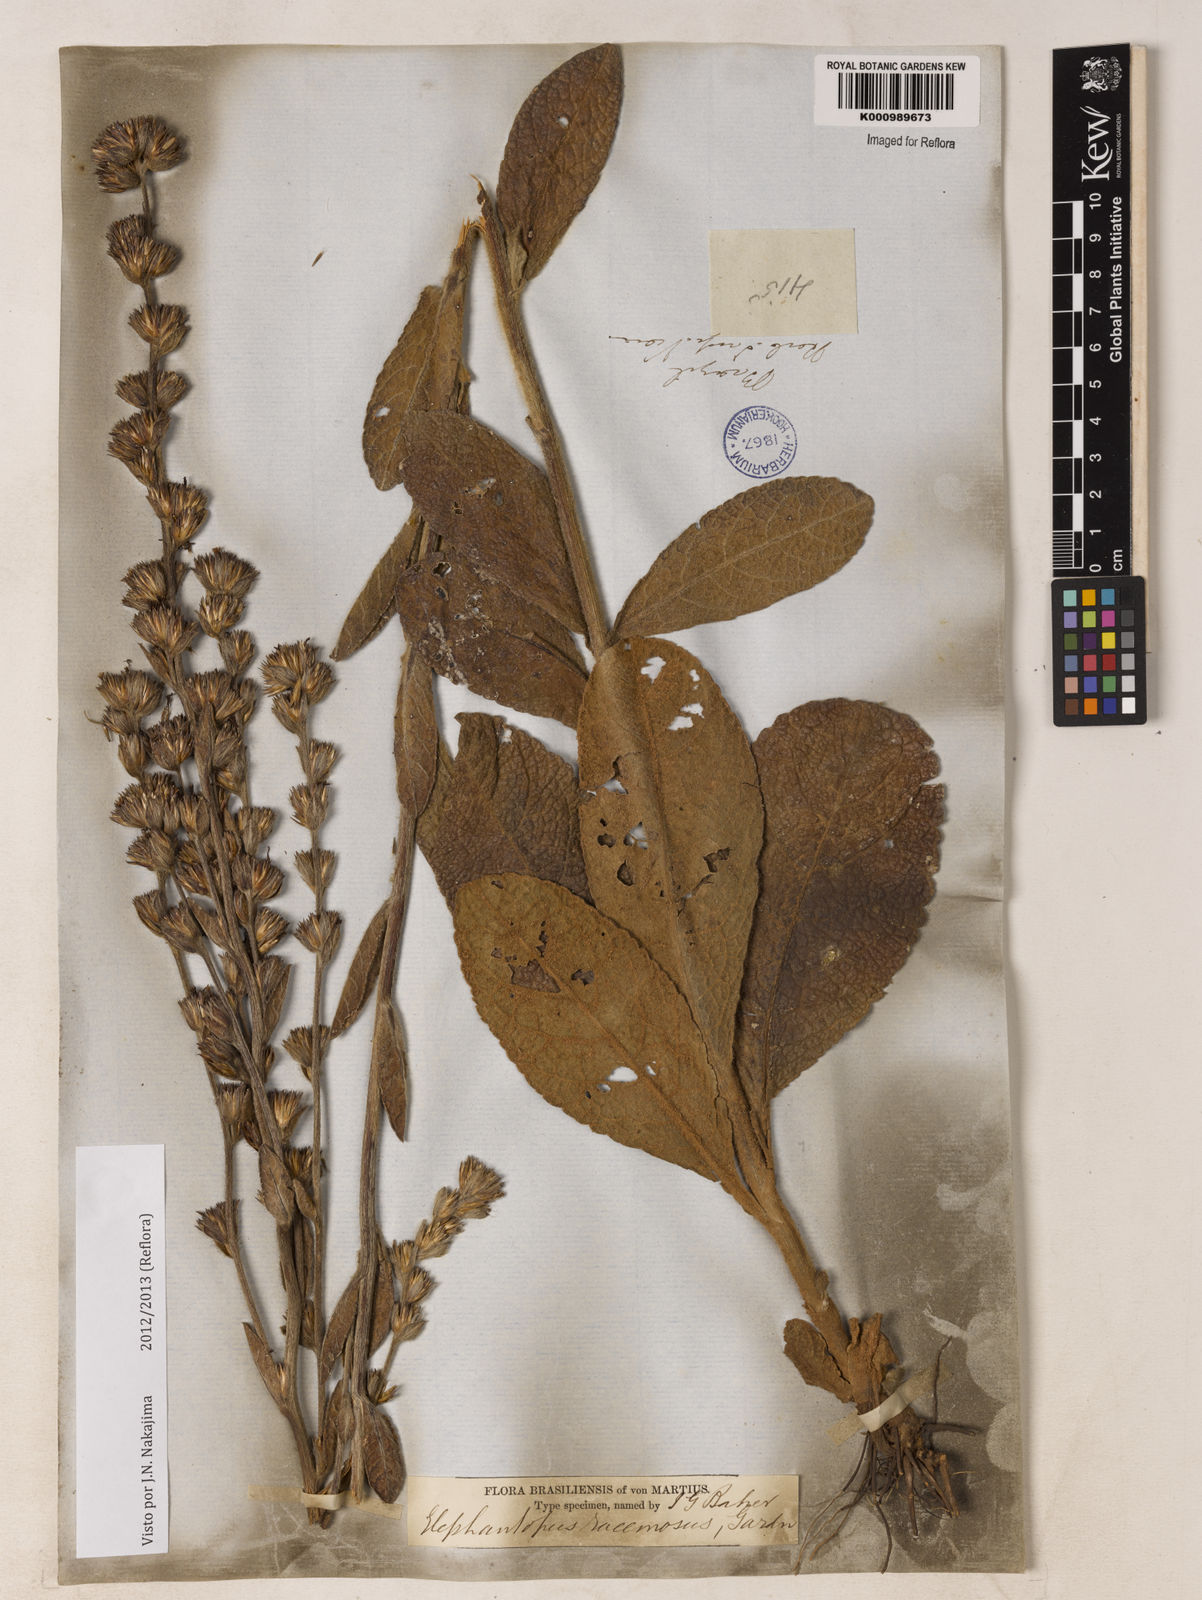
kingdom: Plantae
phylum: Tracheophyta
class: Magnoliopsida
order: Asterales
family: Asteraceae
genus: Elephantopus
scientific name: Elephantopus racemosus
